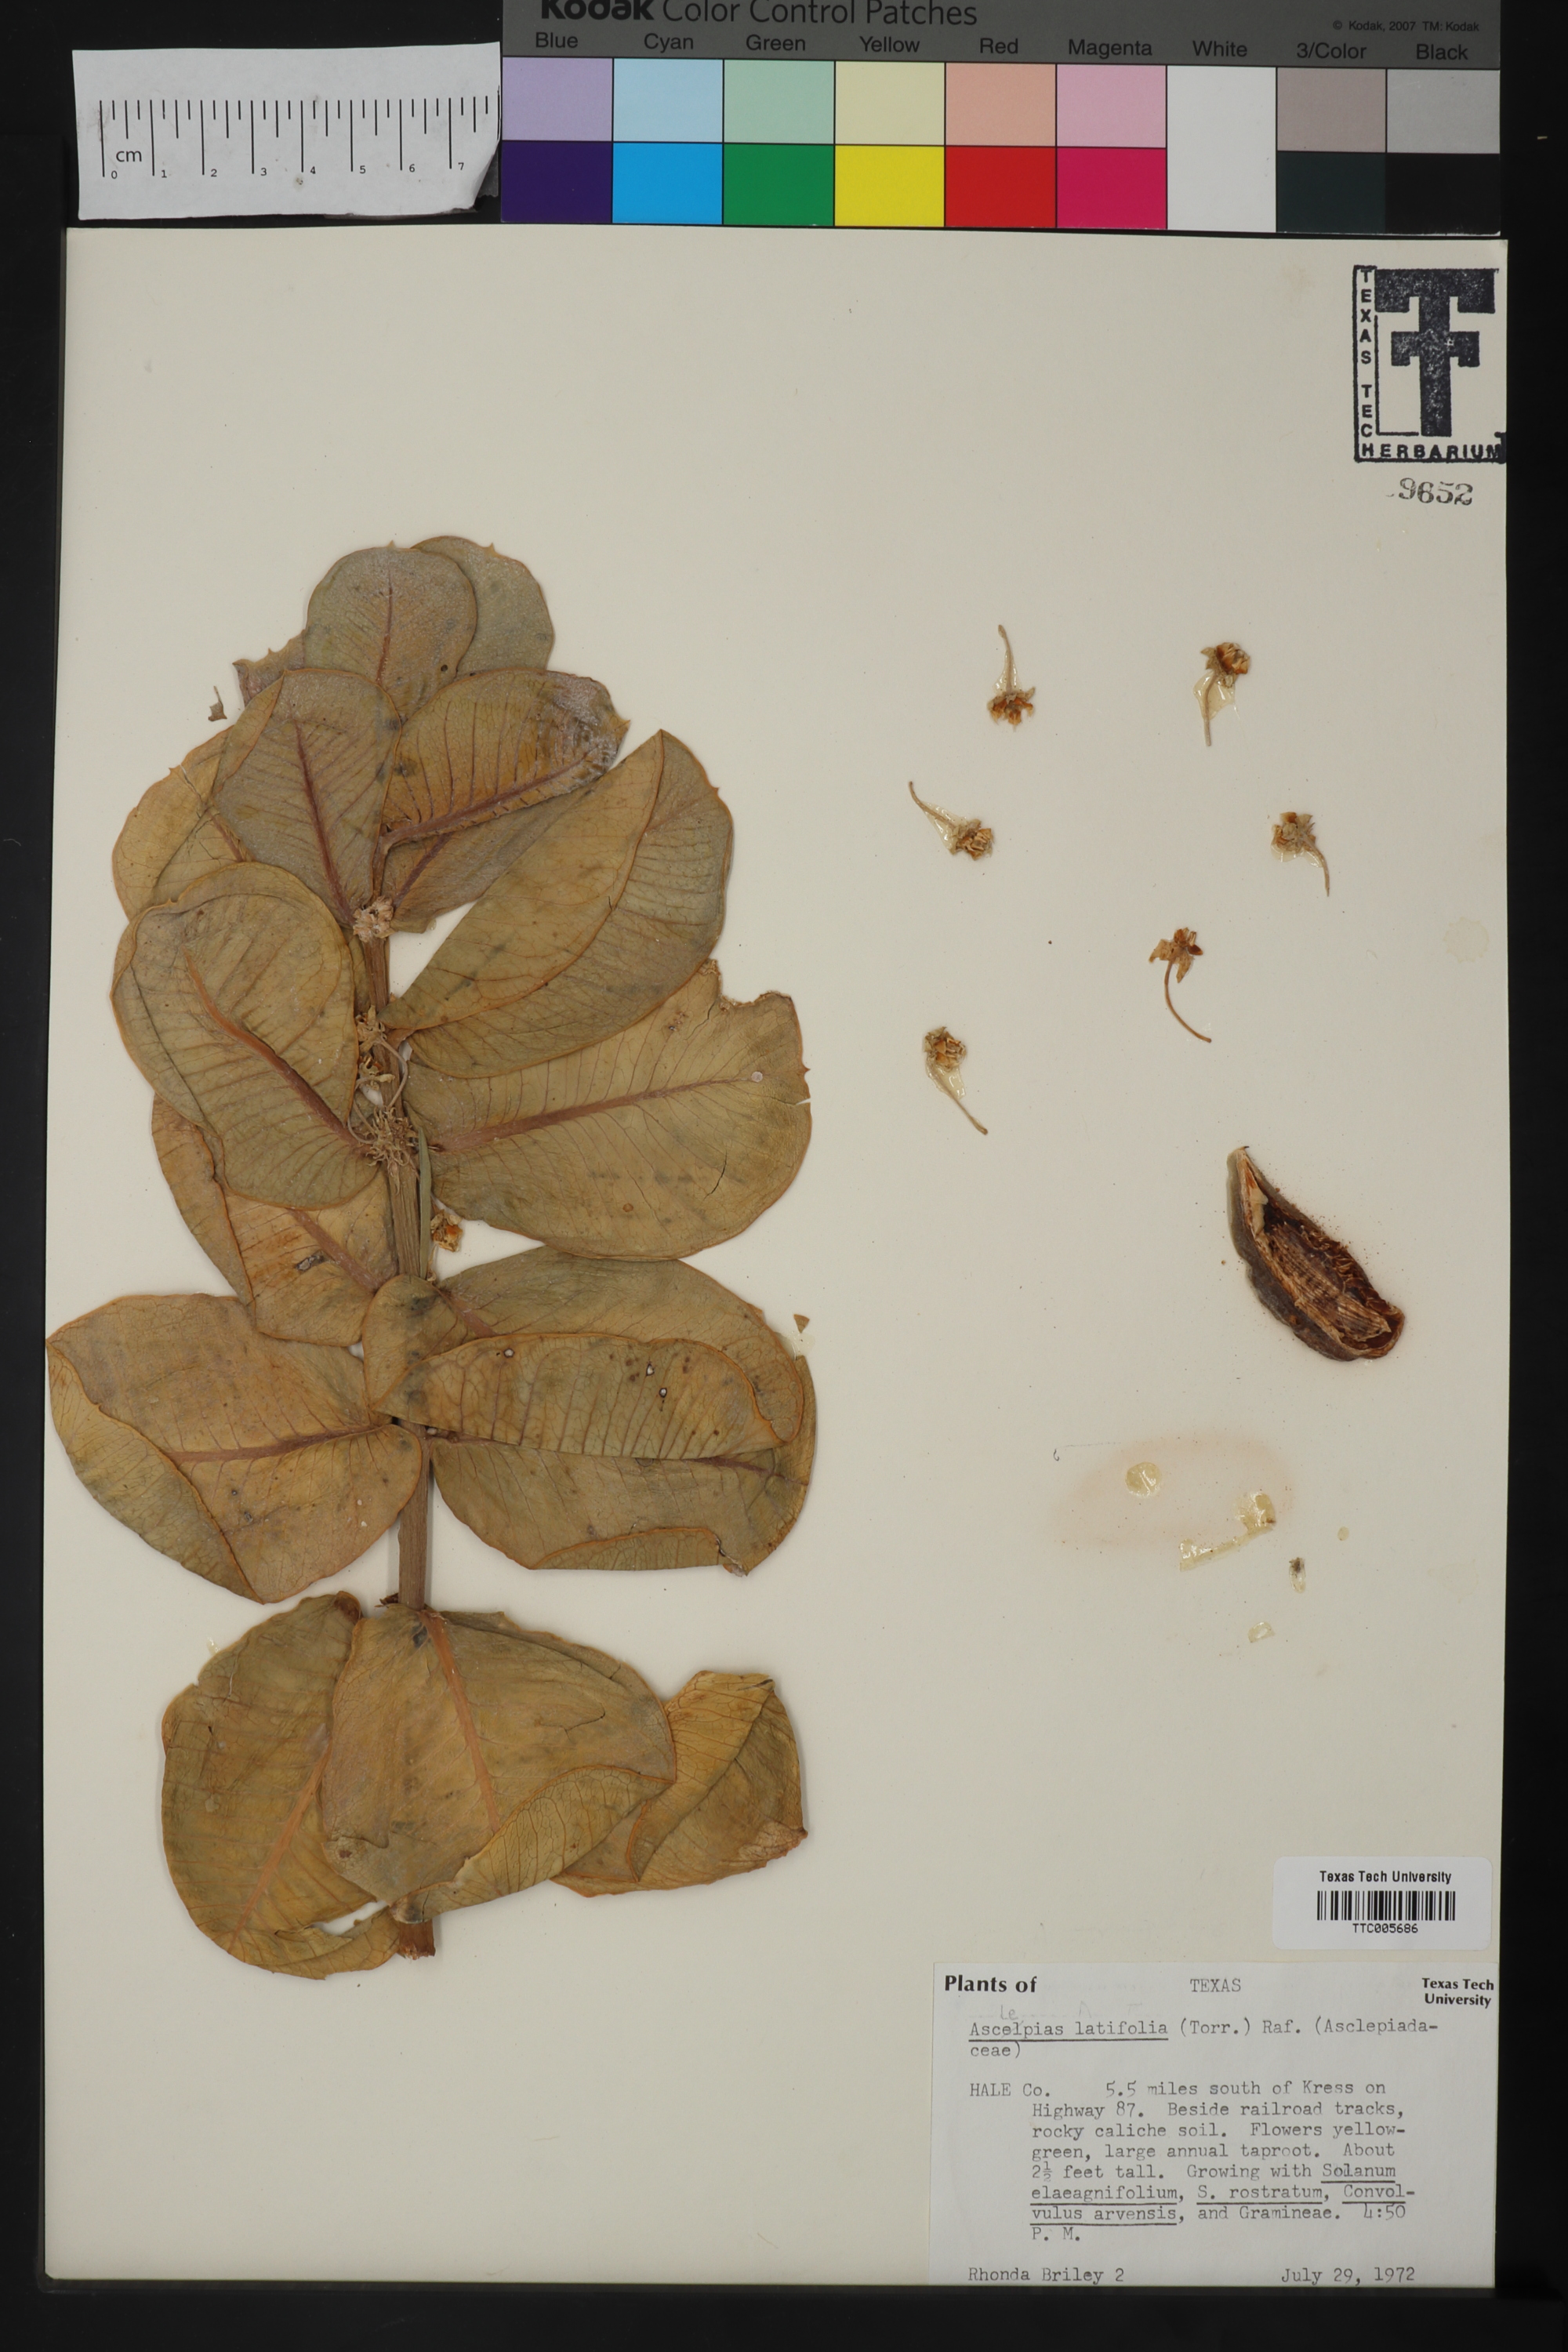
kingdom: Plantae
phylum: Tracheophyta
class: Magnoliopsida
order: Gentianales
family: Apocynaceae
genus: Asclepias
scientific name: Asclepias latifolia
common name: Broadleaf milkweed
